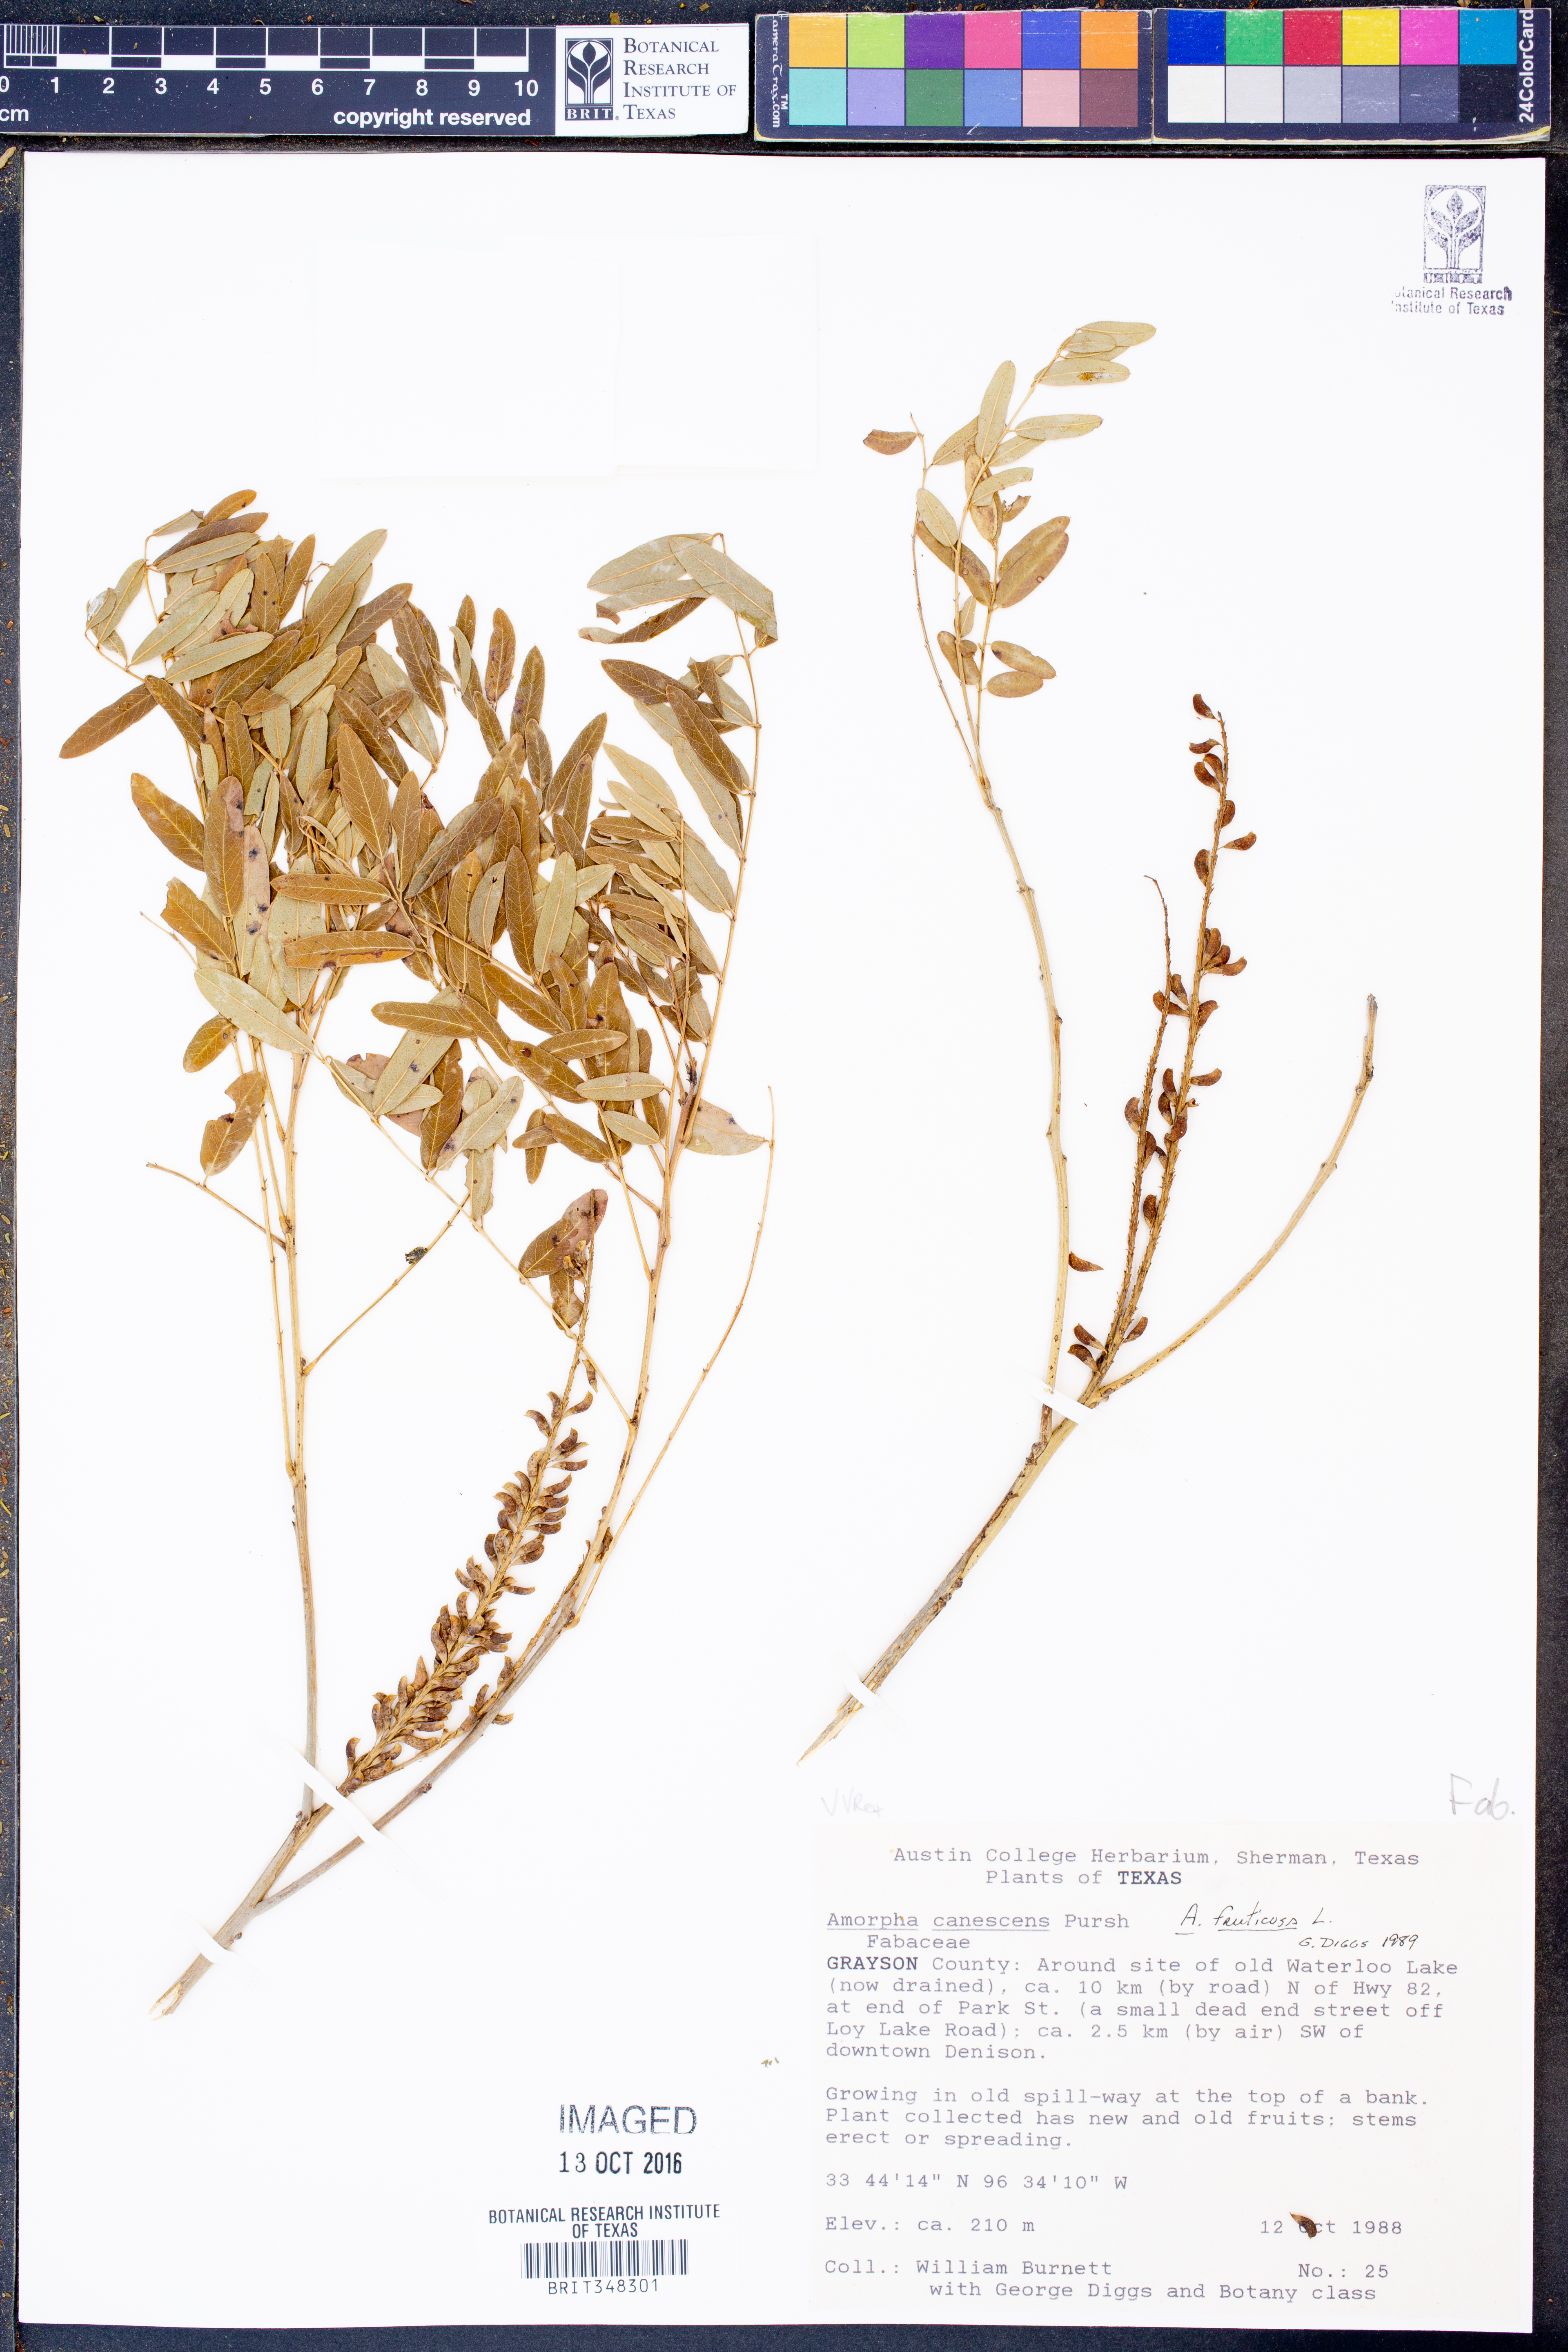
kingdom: Plantae
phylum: Tracheophyta
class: Magnoliopsida
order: Fabales
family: Fabaceae
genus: Amorpha
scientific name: Amorpha fruticosa
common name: False indigo
